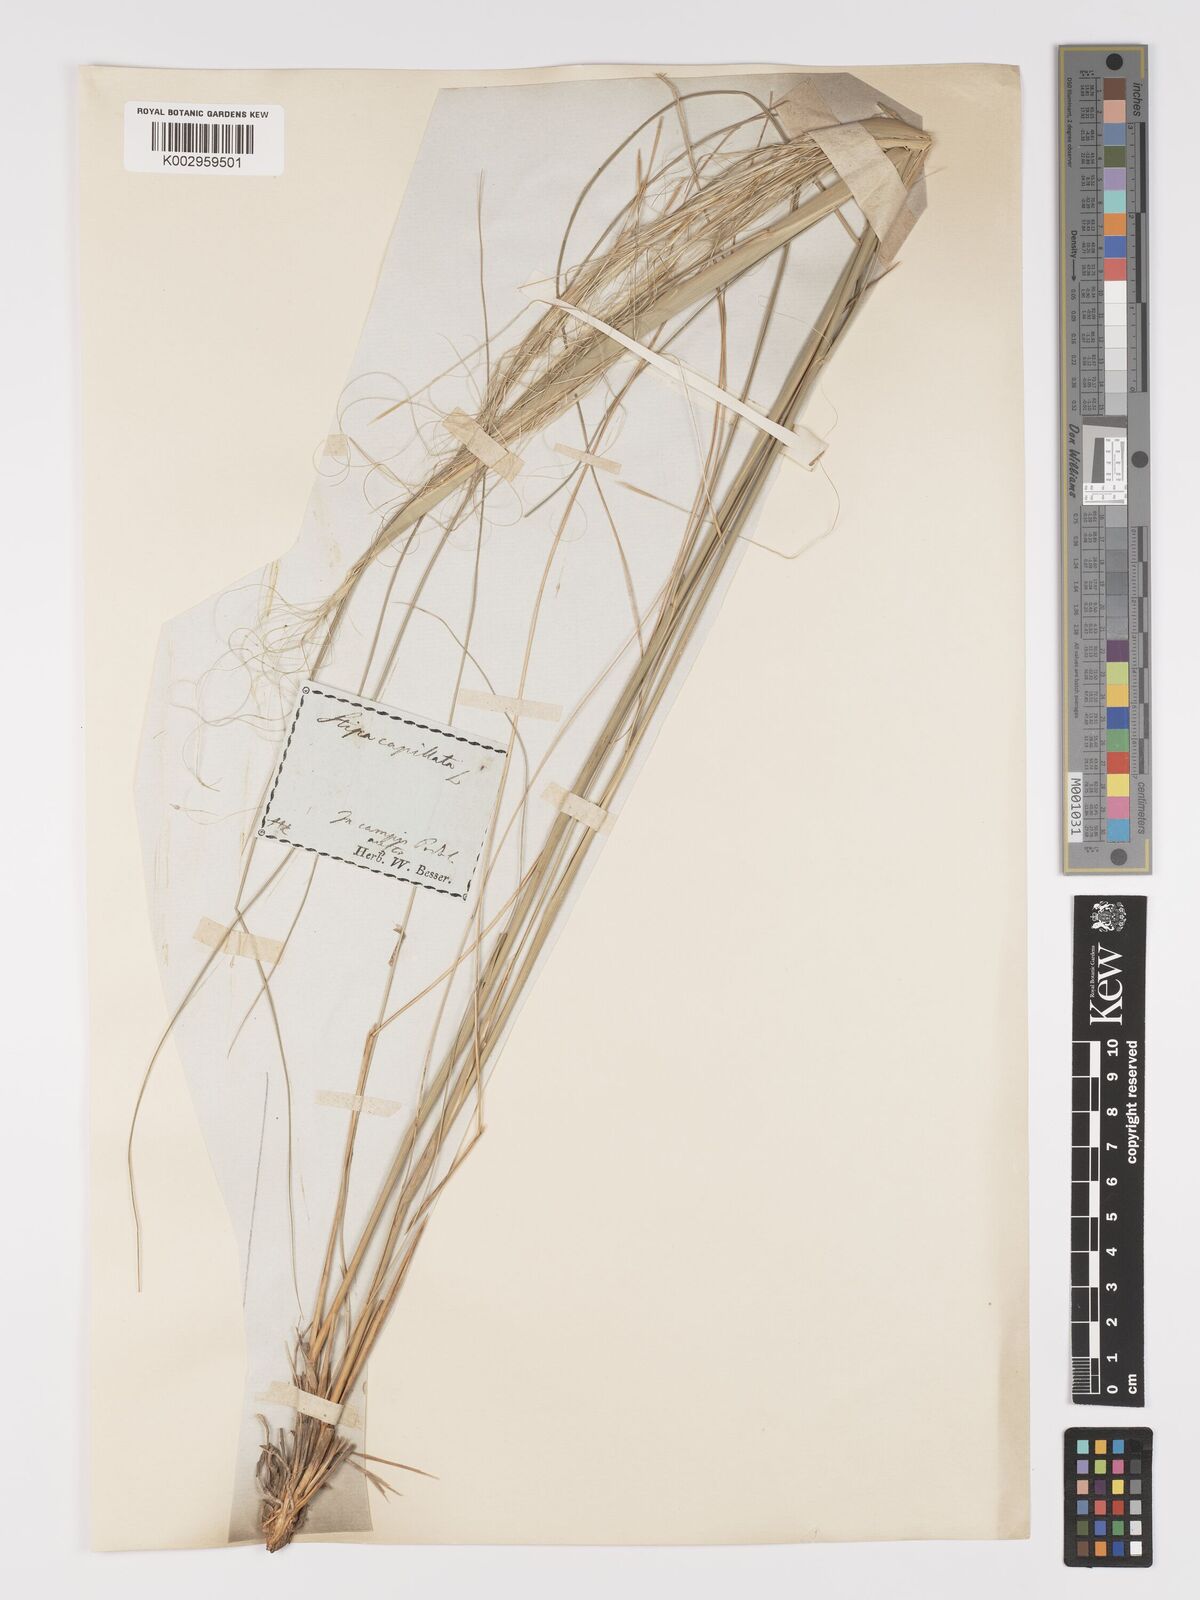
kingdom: Plantae
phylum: Tracheophyta
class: Liliopsida
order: Poales
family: Poaceae
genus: Stipa
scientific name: Stipa capillata
